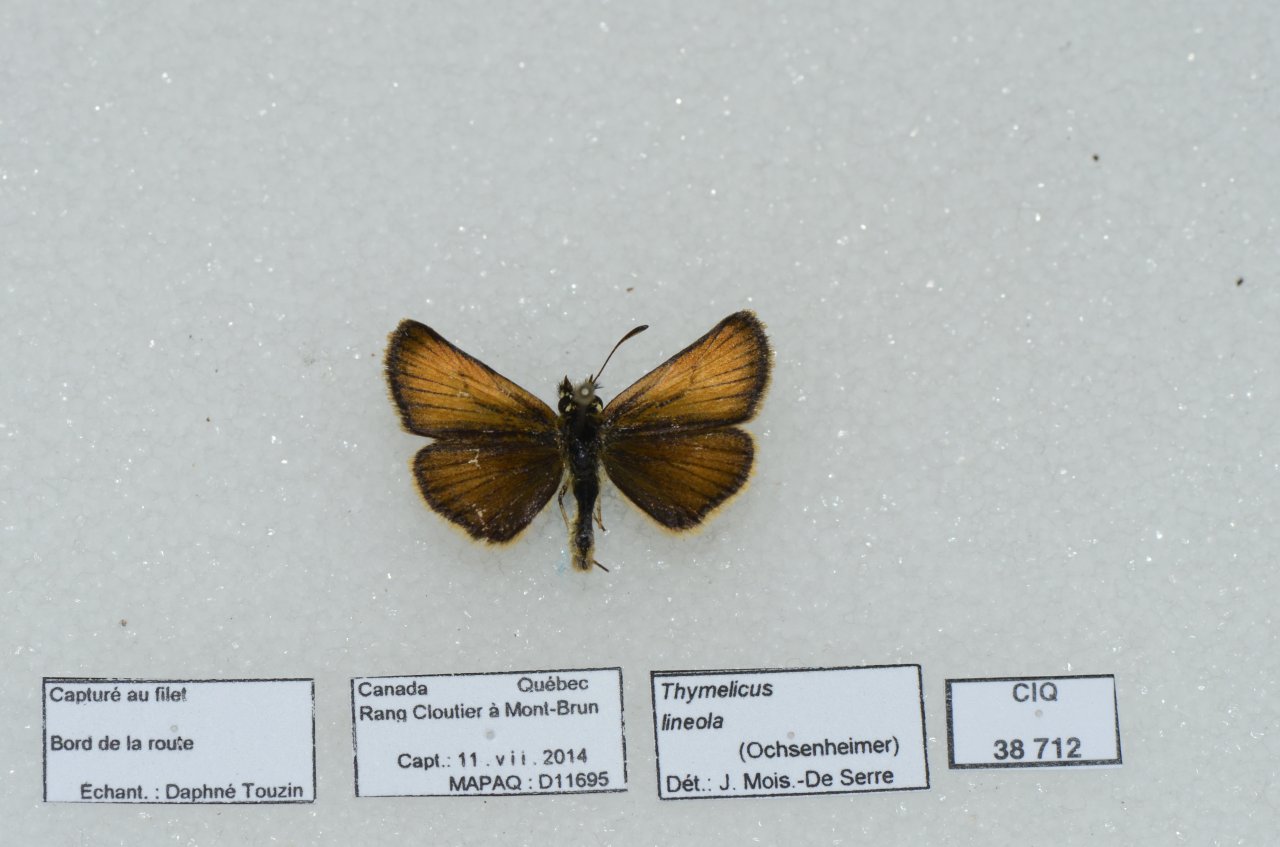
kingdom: Animalia
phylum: Arthropoda
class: Insecta
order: Lepidoptera
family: Hesperiidae
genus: Thymelicus
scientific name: Thymelicus lineola
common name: European Skipper
